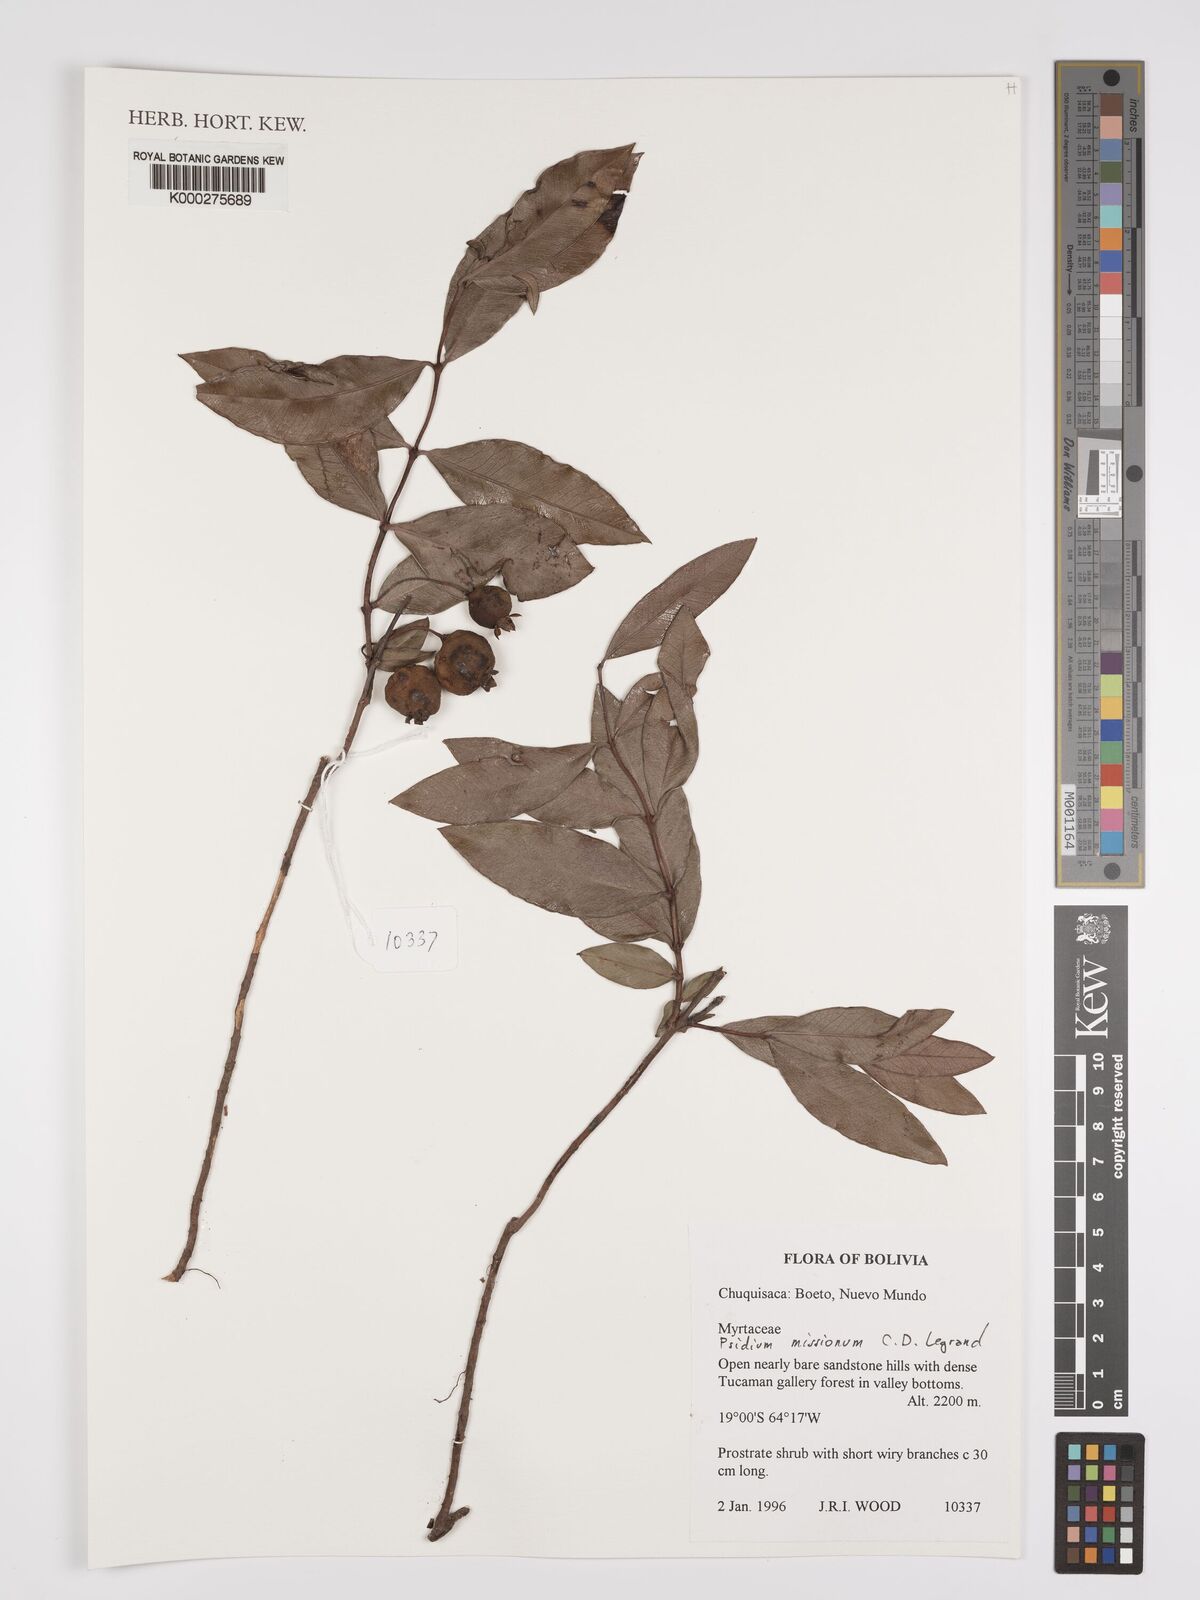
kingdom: Plantae
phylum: Tracheophyta
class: Magnoliopsida
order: Myrtales
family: Myrtaceae
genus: Psidium
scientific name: Psidium misionum
